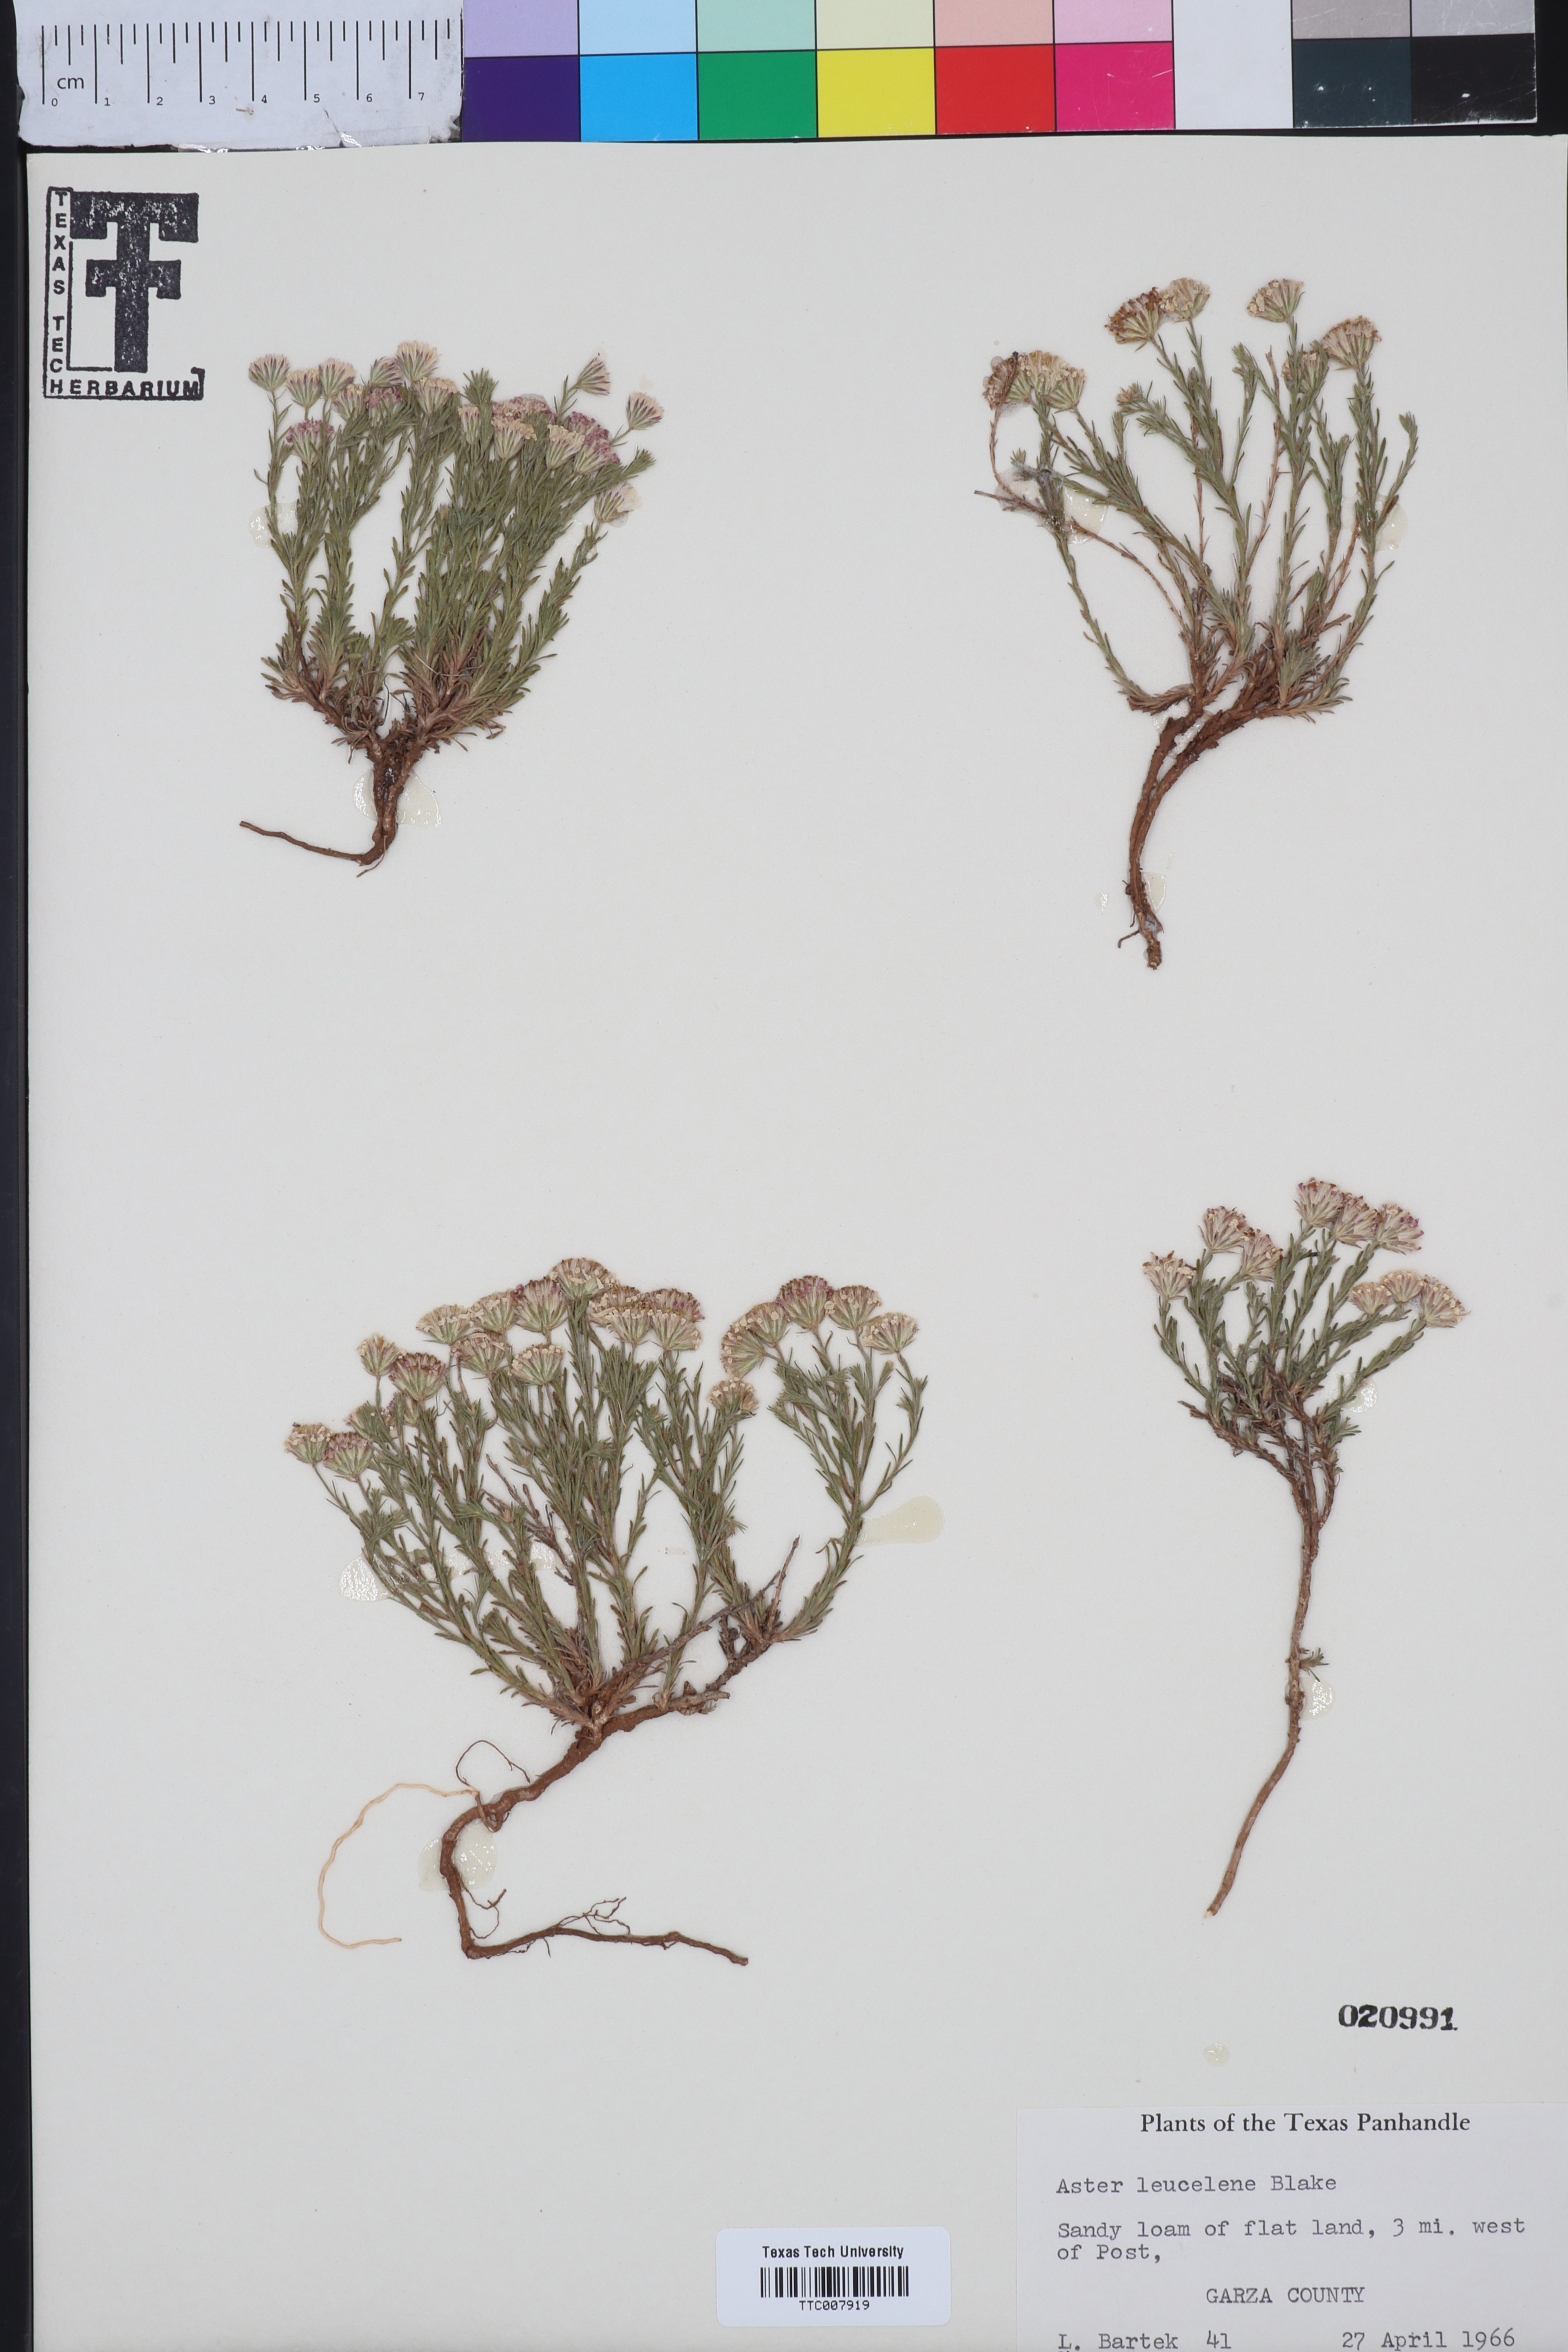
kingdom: Plantae
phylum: Tracheophyta
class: Magnoliopsida
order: Asterales
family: Asteraceae
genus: Chaetopappa
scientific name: Chaetopappa ericoides
